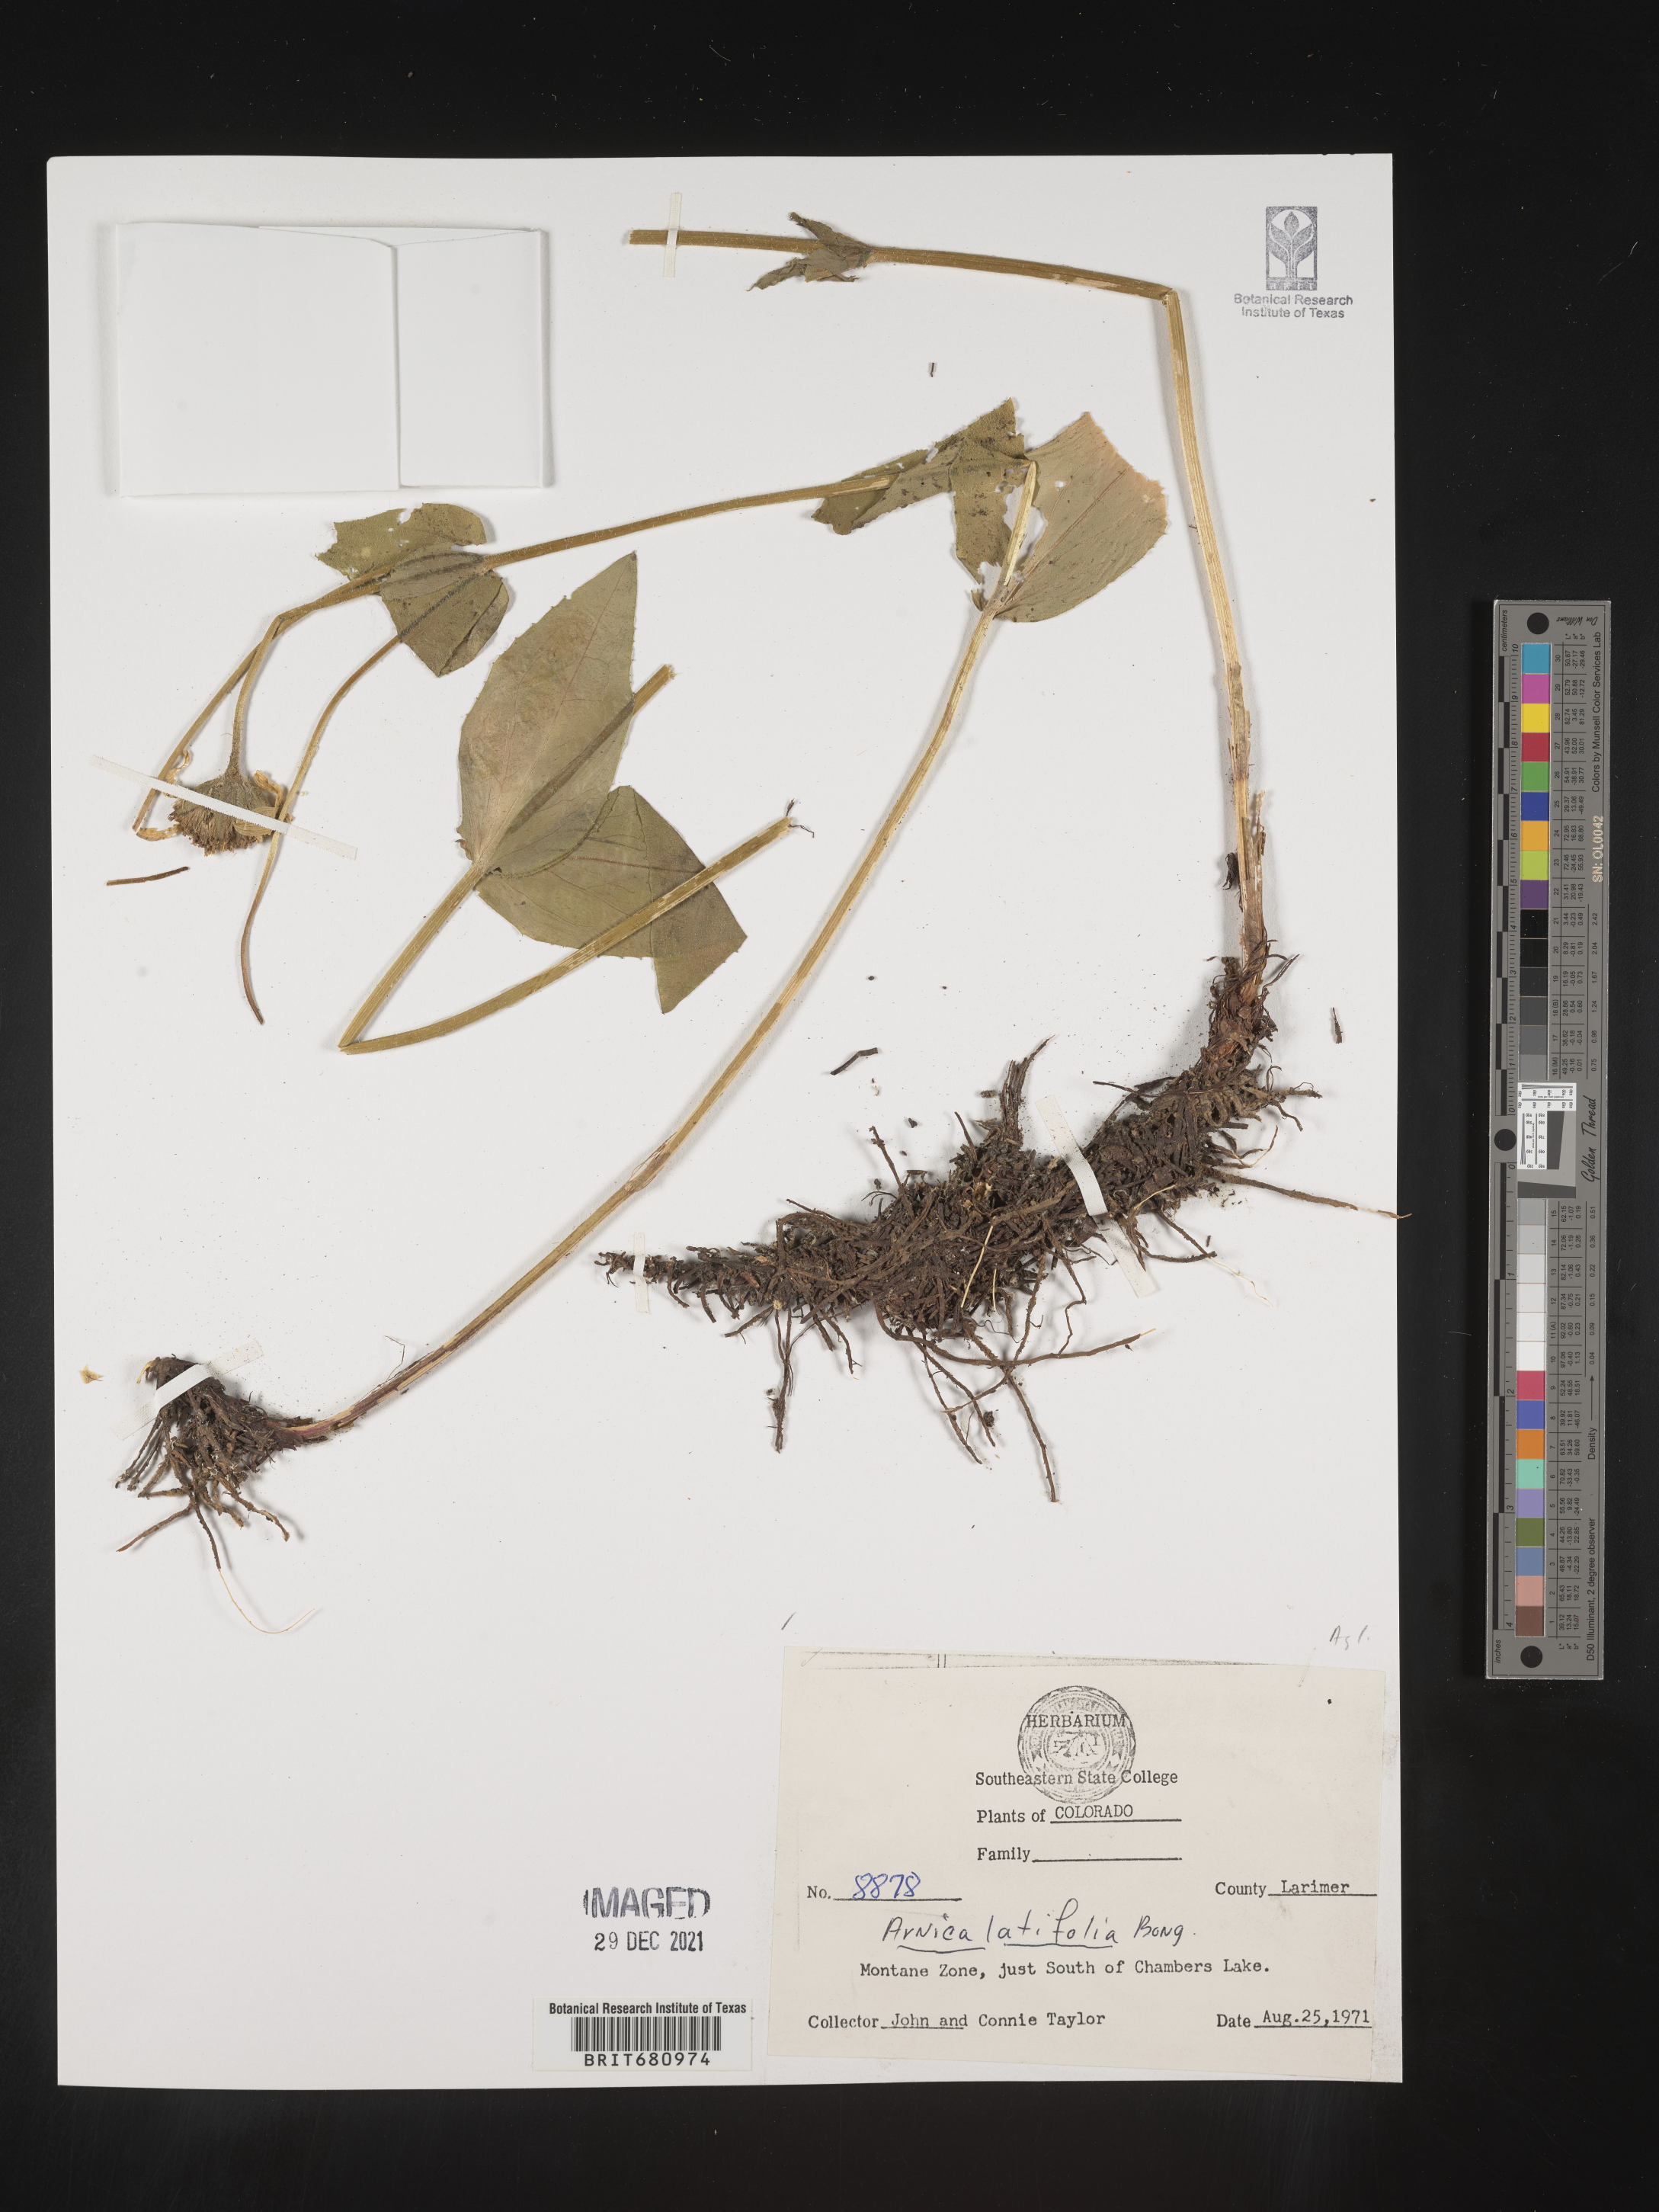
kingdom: Plantae
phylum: Tracheophyta
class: Magnoliopsida
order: Asterales
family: Asteraceae
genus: Arnica
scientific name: Arnica latifolia
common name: Arnica
